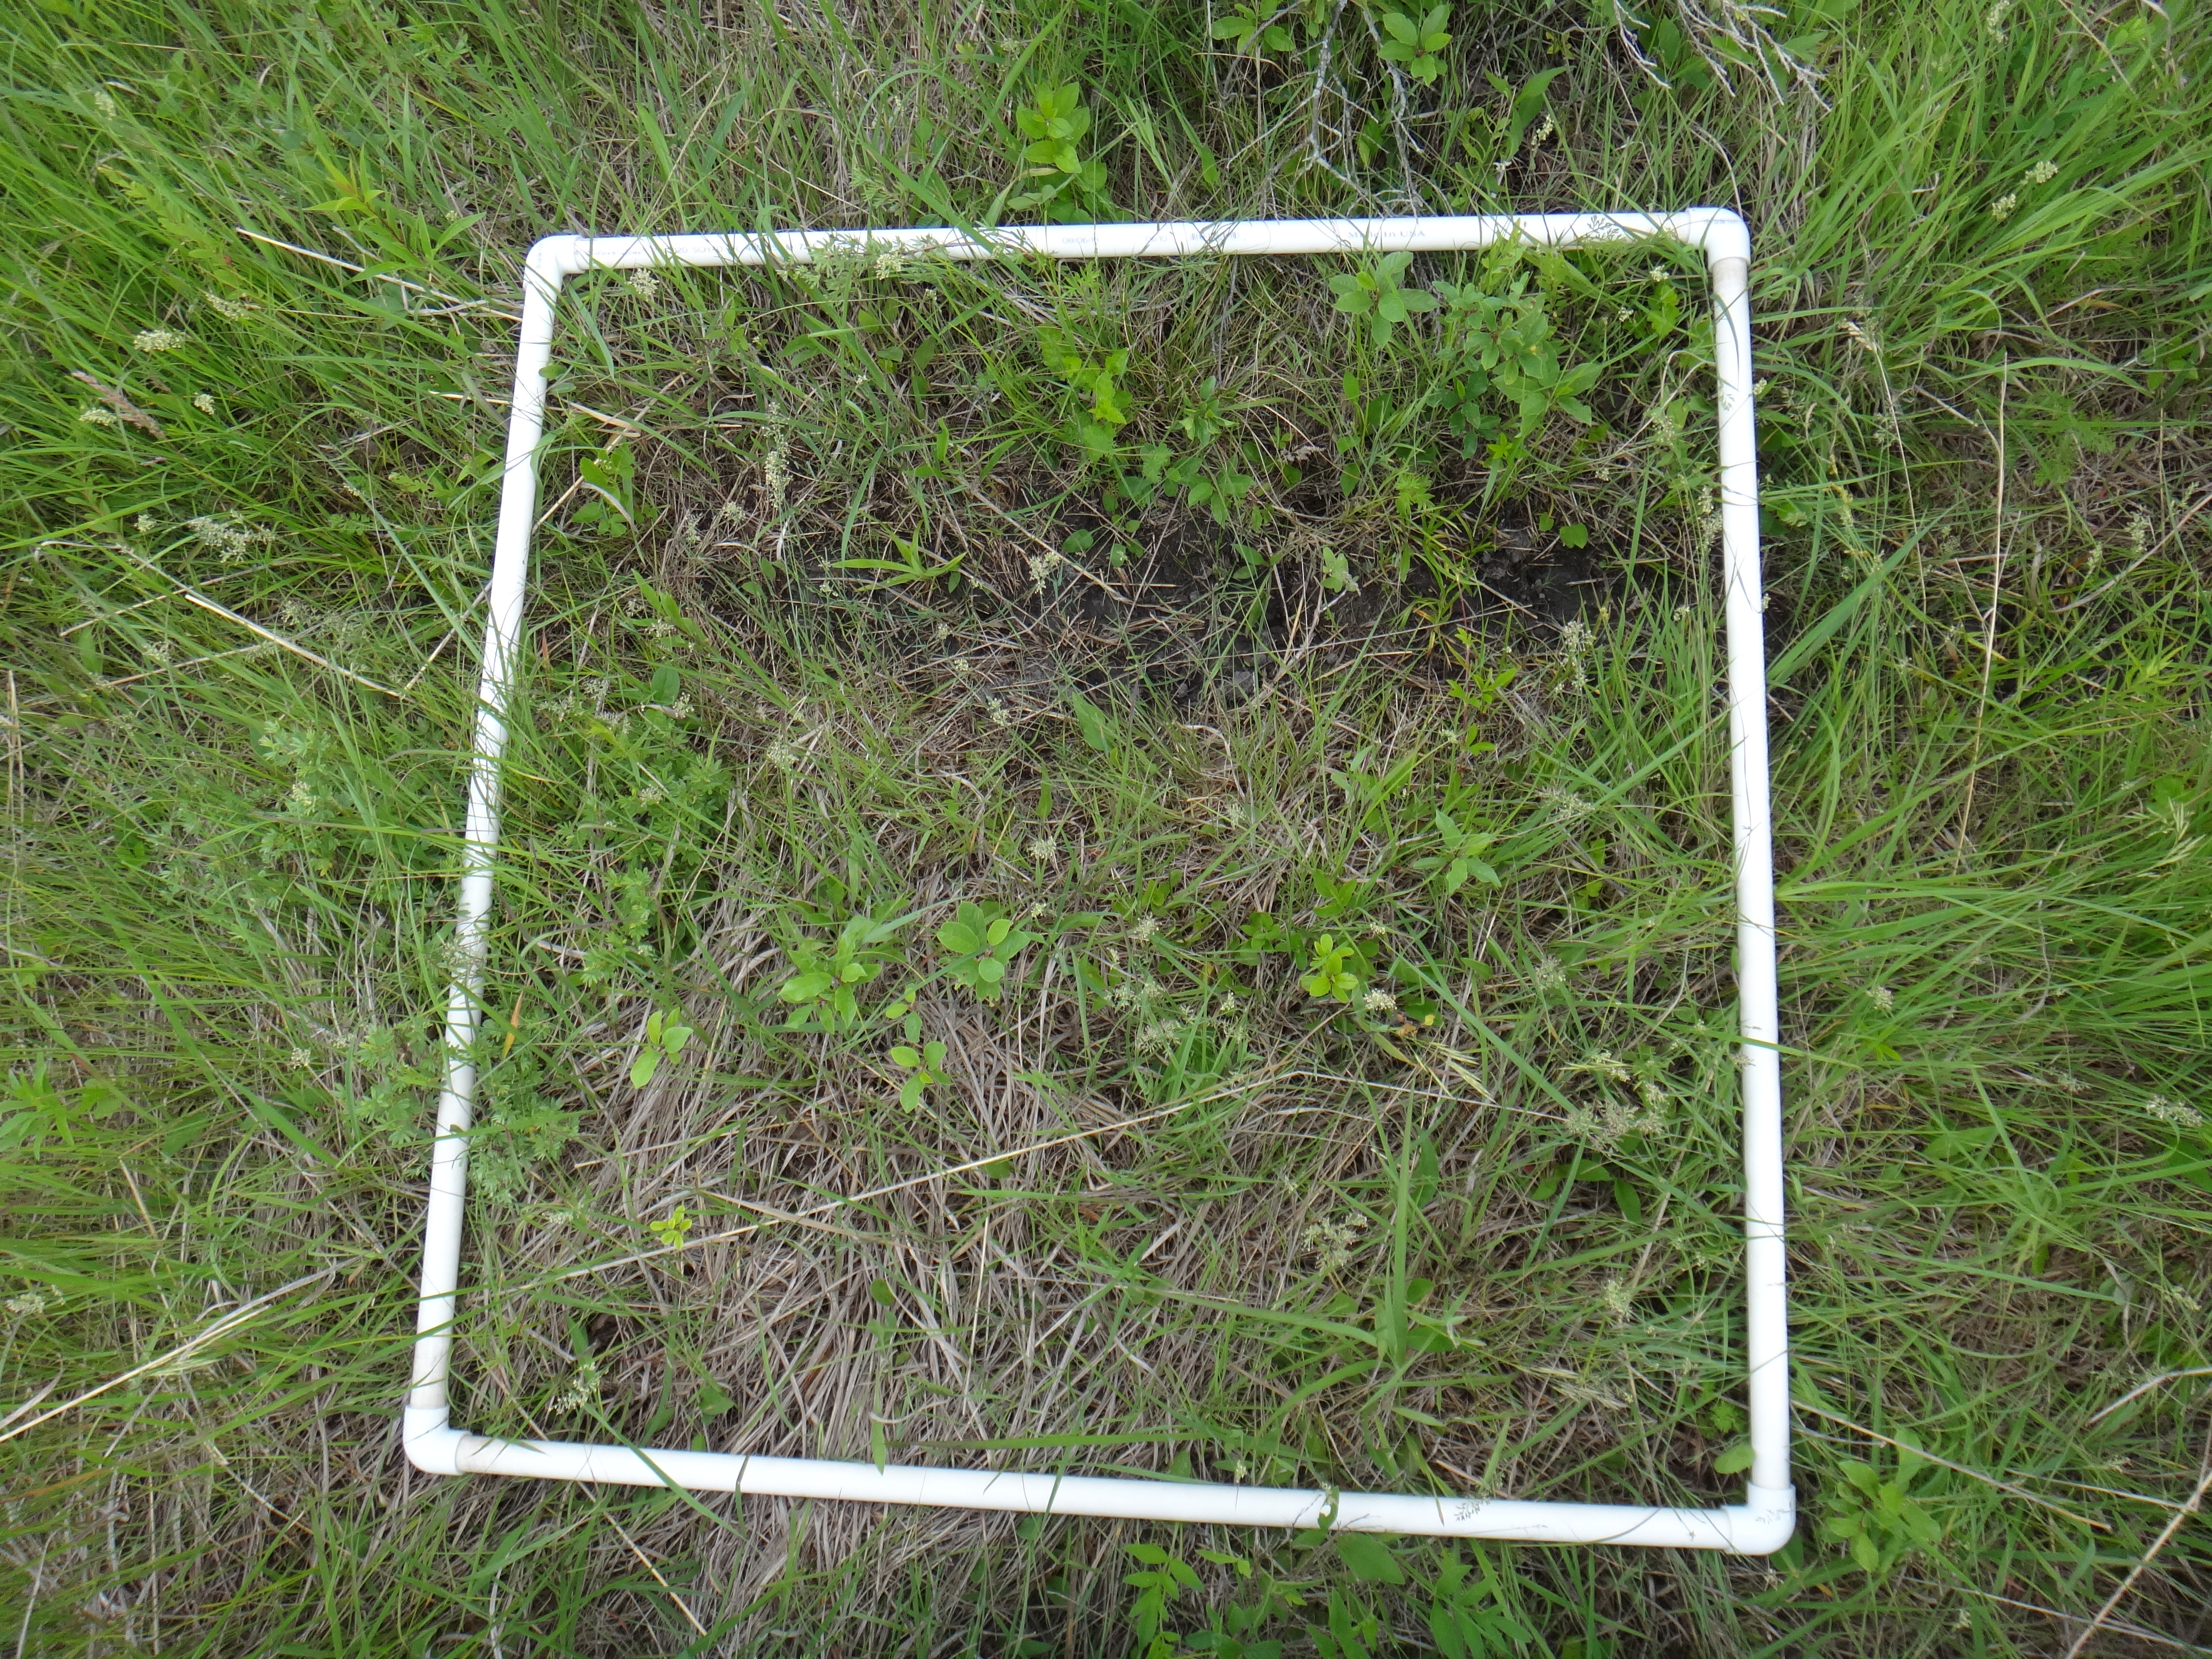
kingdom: Plantae
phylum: Tracheophyta
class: Magnoliopsida
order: Rosales
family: Rhamnaceae
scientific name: Rhamnaceae
